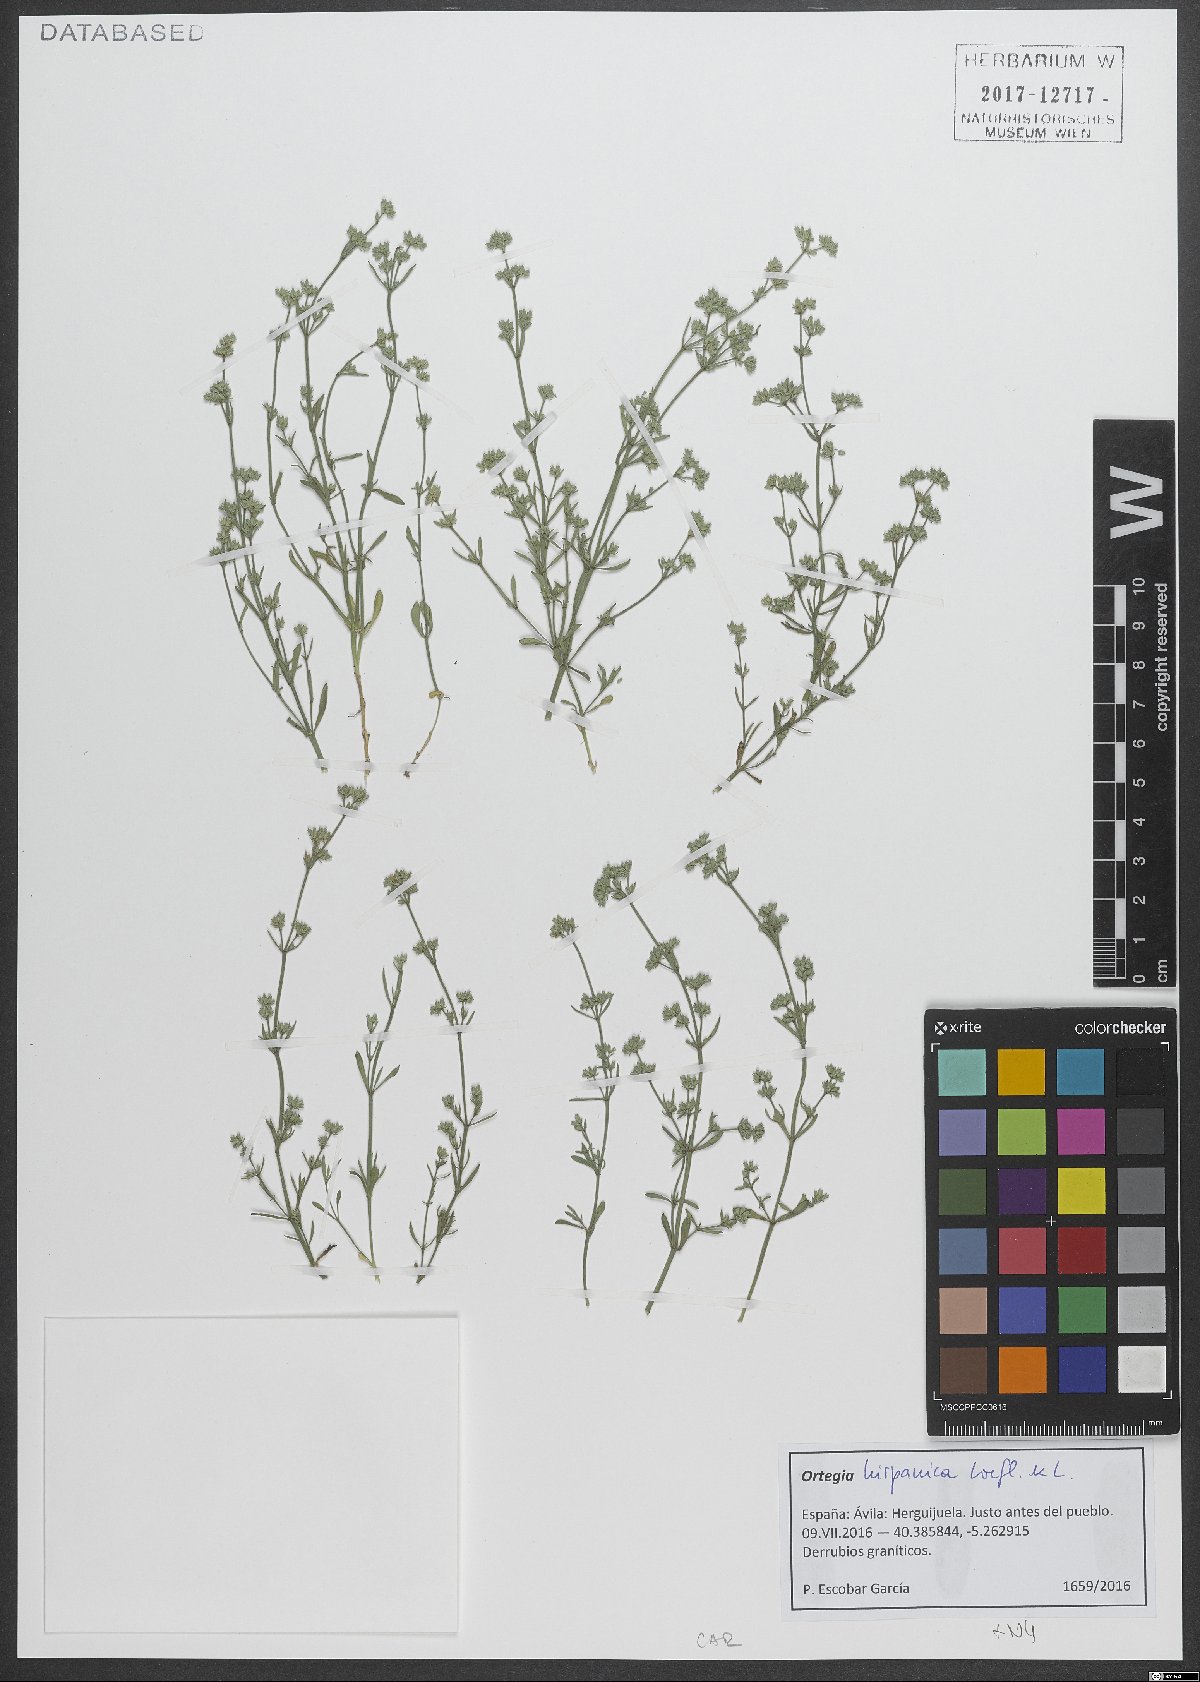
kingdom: Plantae
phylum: Tracheophyta
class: Magnoliopsida
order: Caryophyllales
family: Caryophyllaceae
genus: Ortegia
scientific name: Ortegia hispanica
